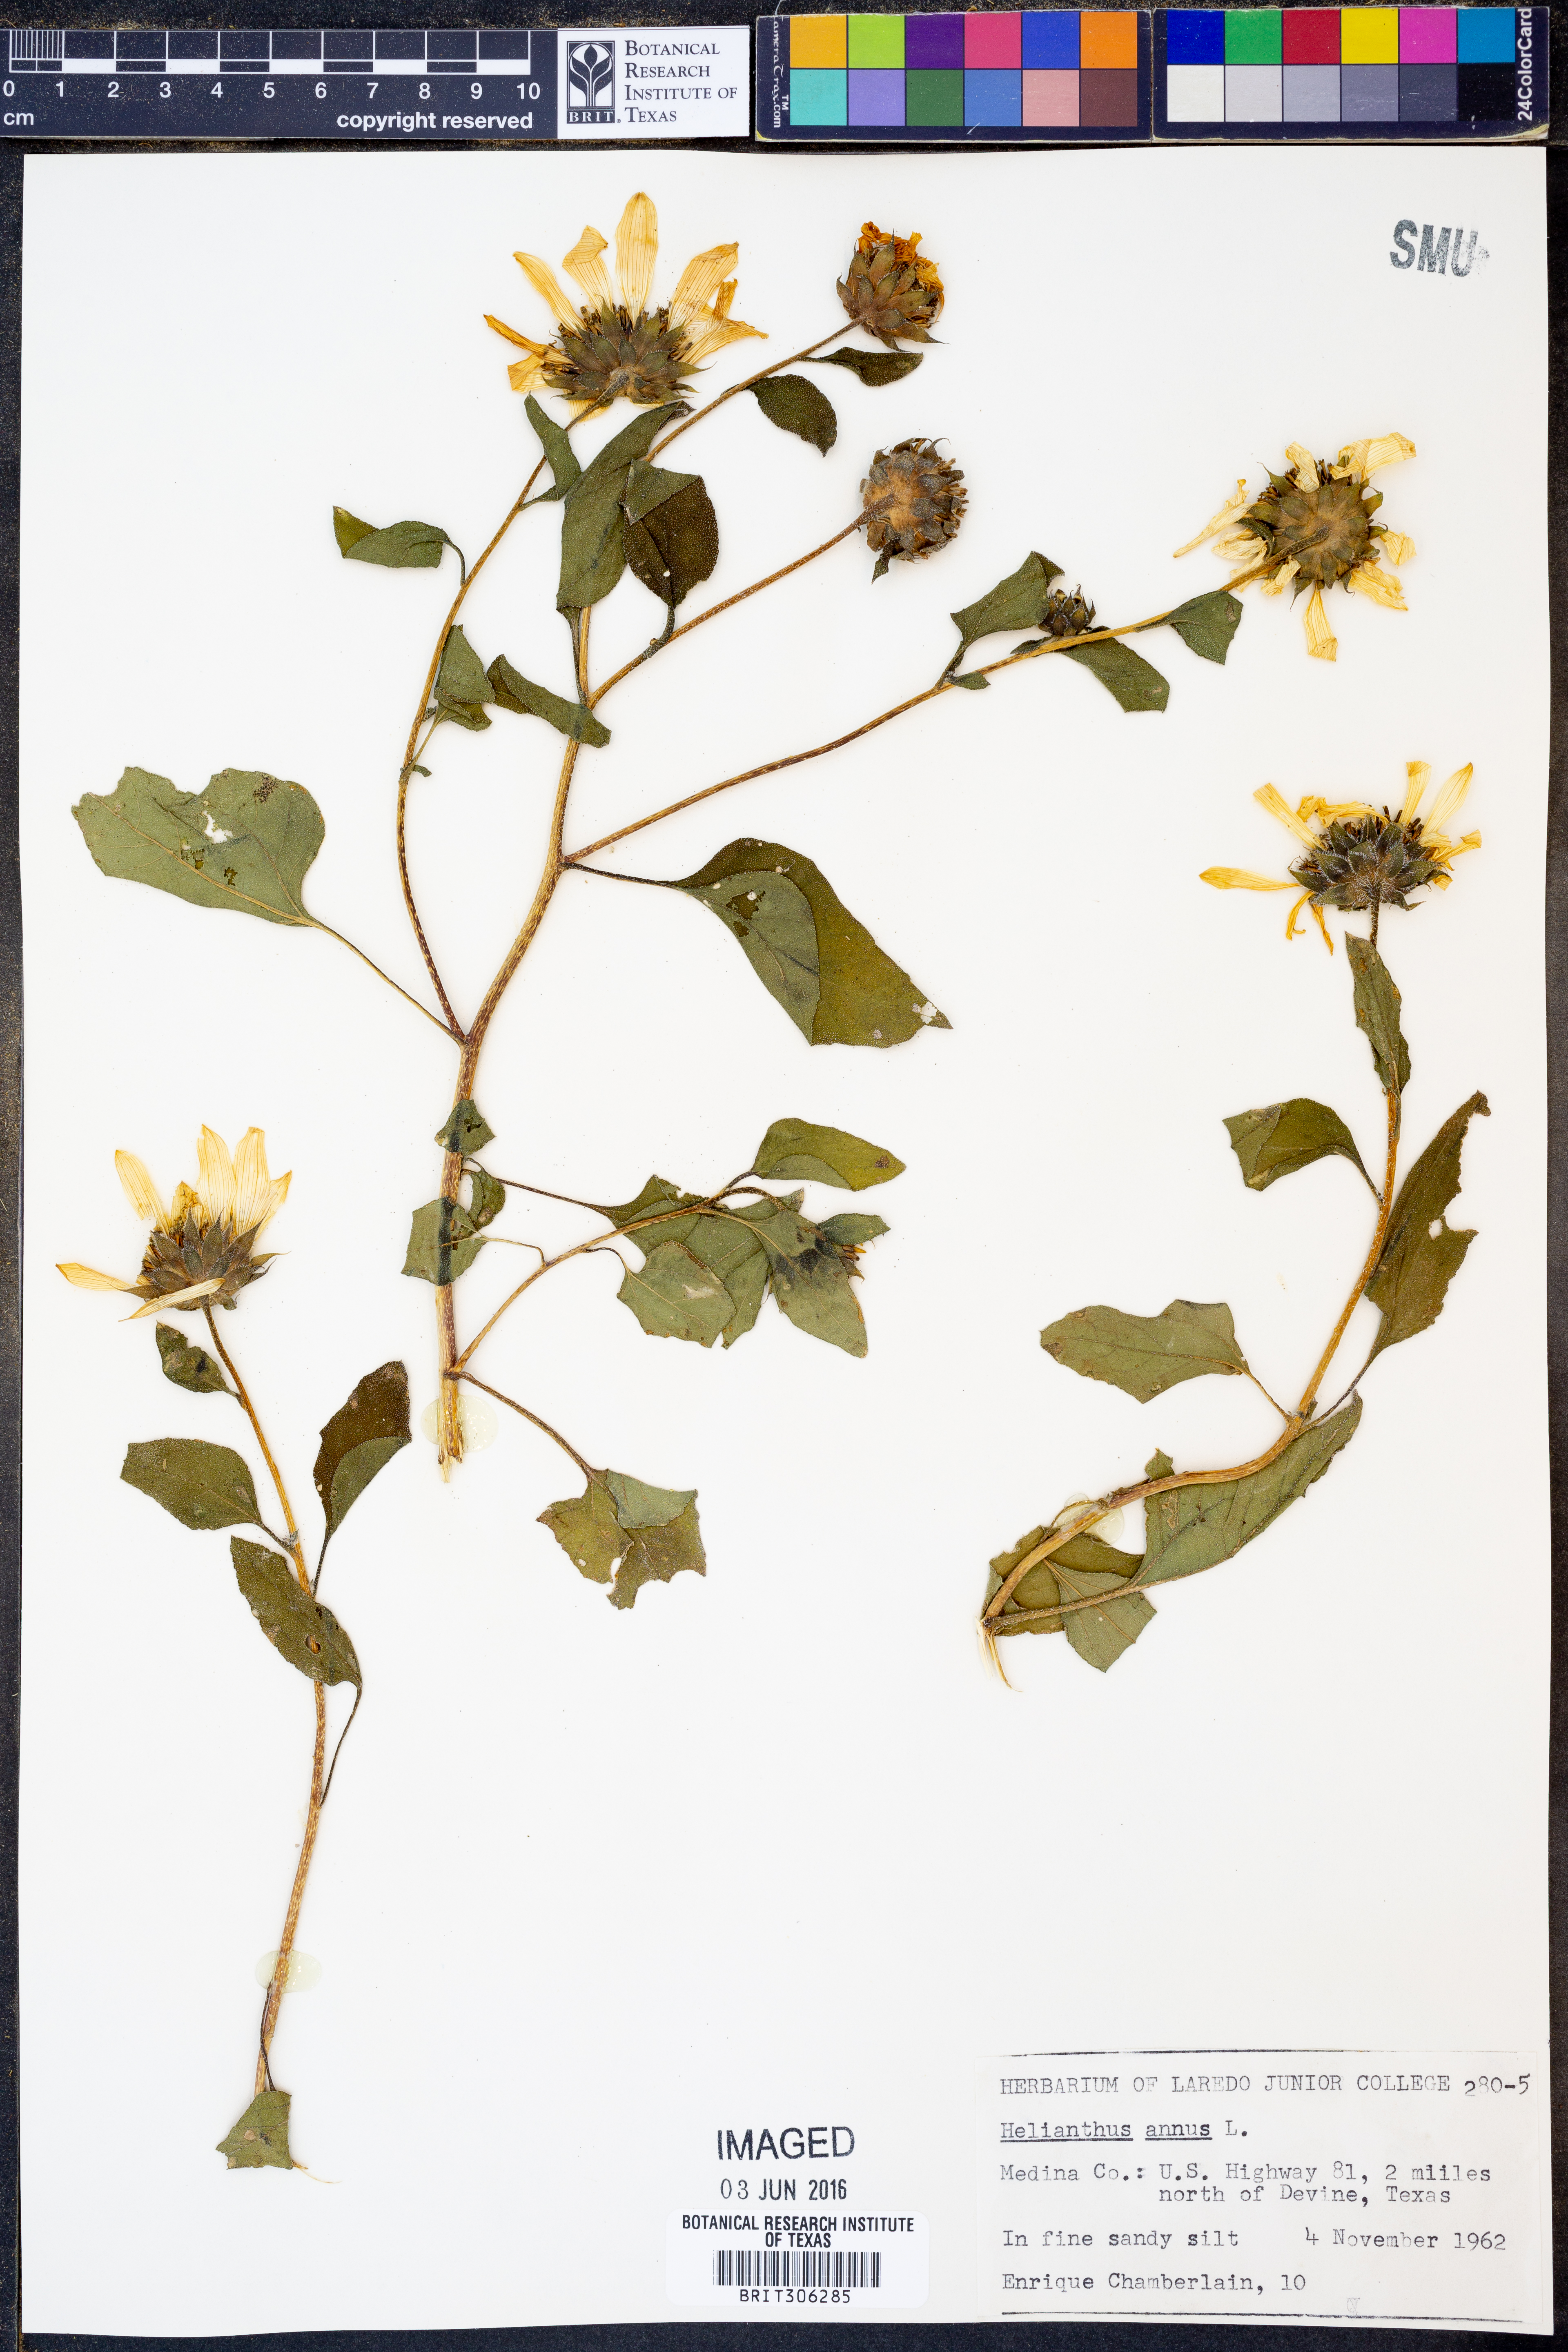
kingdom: Plantae
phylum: Tracheophyta
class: Magnoliopsida
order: Asterales
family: Asteraceae
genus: Helianthus
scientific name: Helianthus annuus
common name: Sunflower
